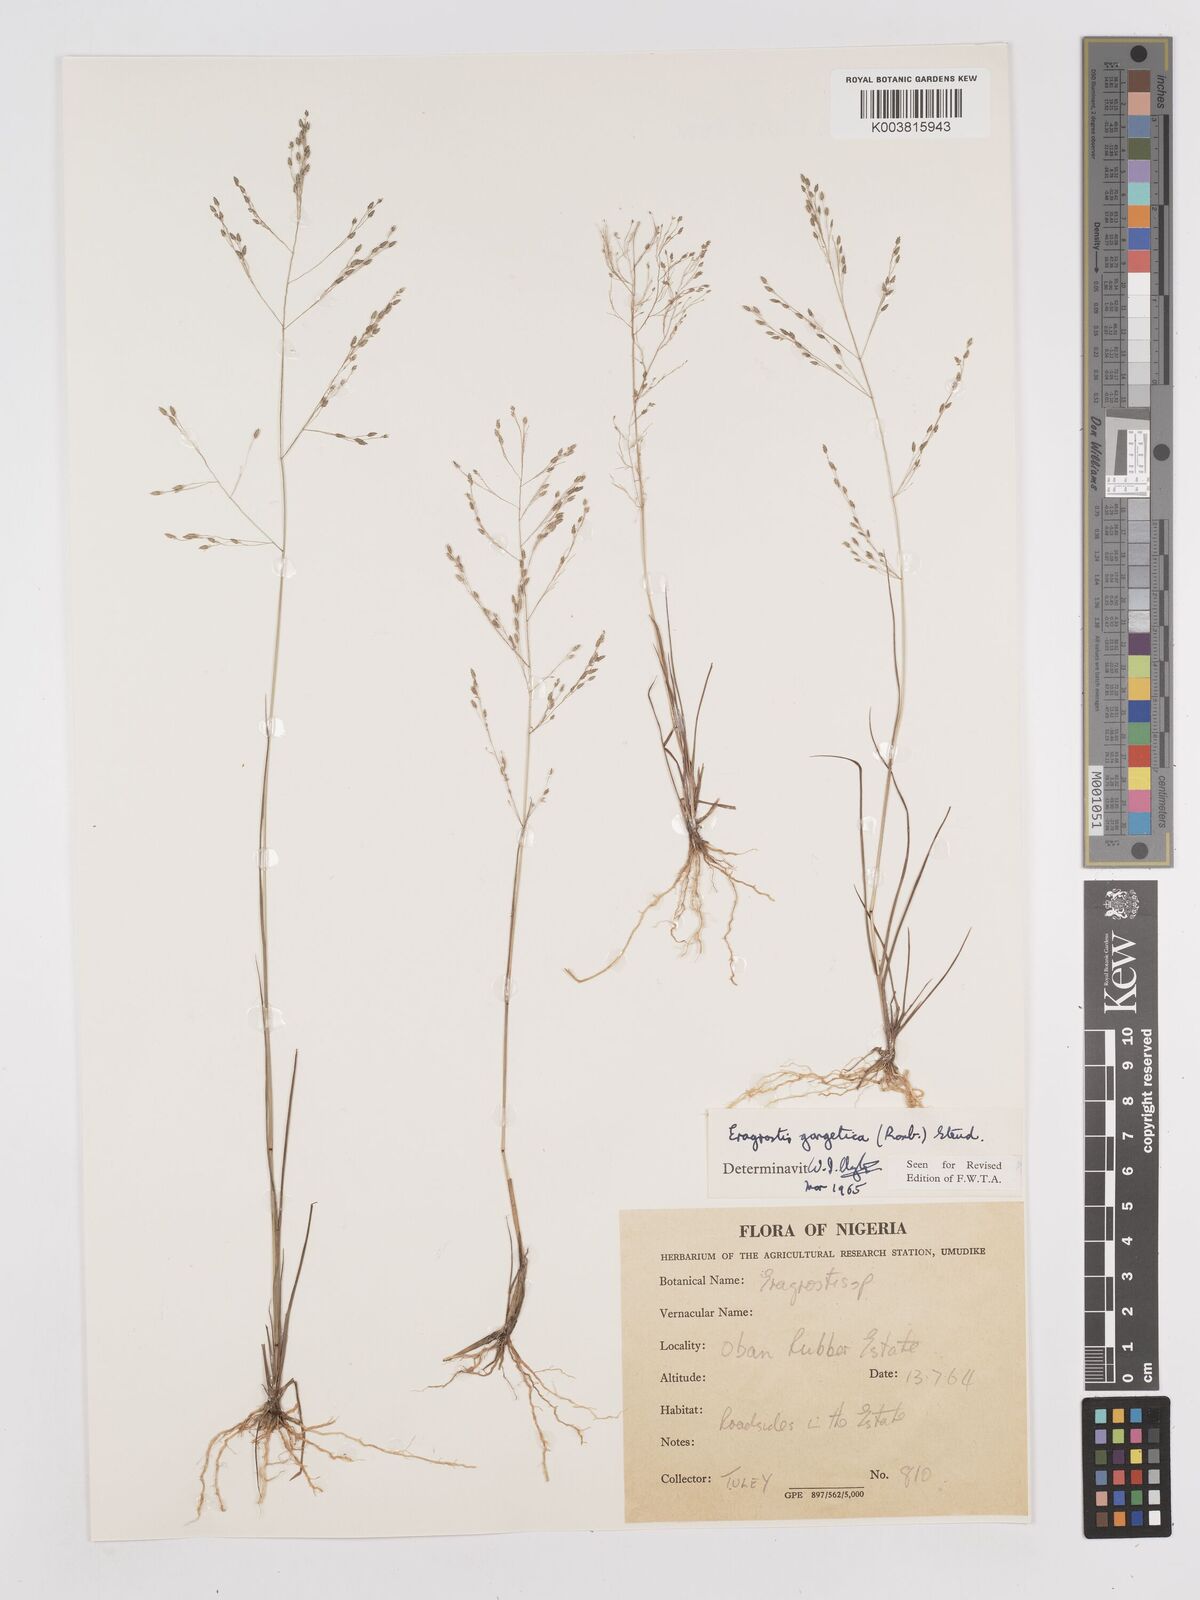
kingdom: Plantae
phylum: Tracheophyta
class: Liliopsida
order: Poales
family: Poaceae
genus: Eragrostis
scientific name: Eragrostis gangetica
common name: Slimflower lovegrass
